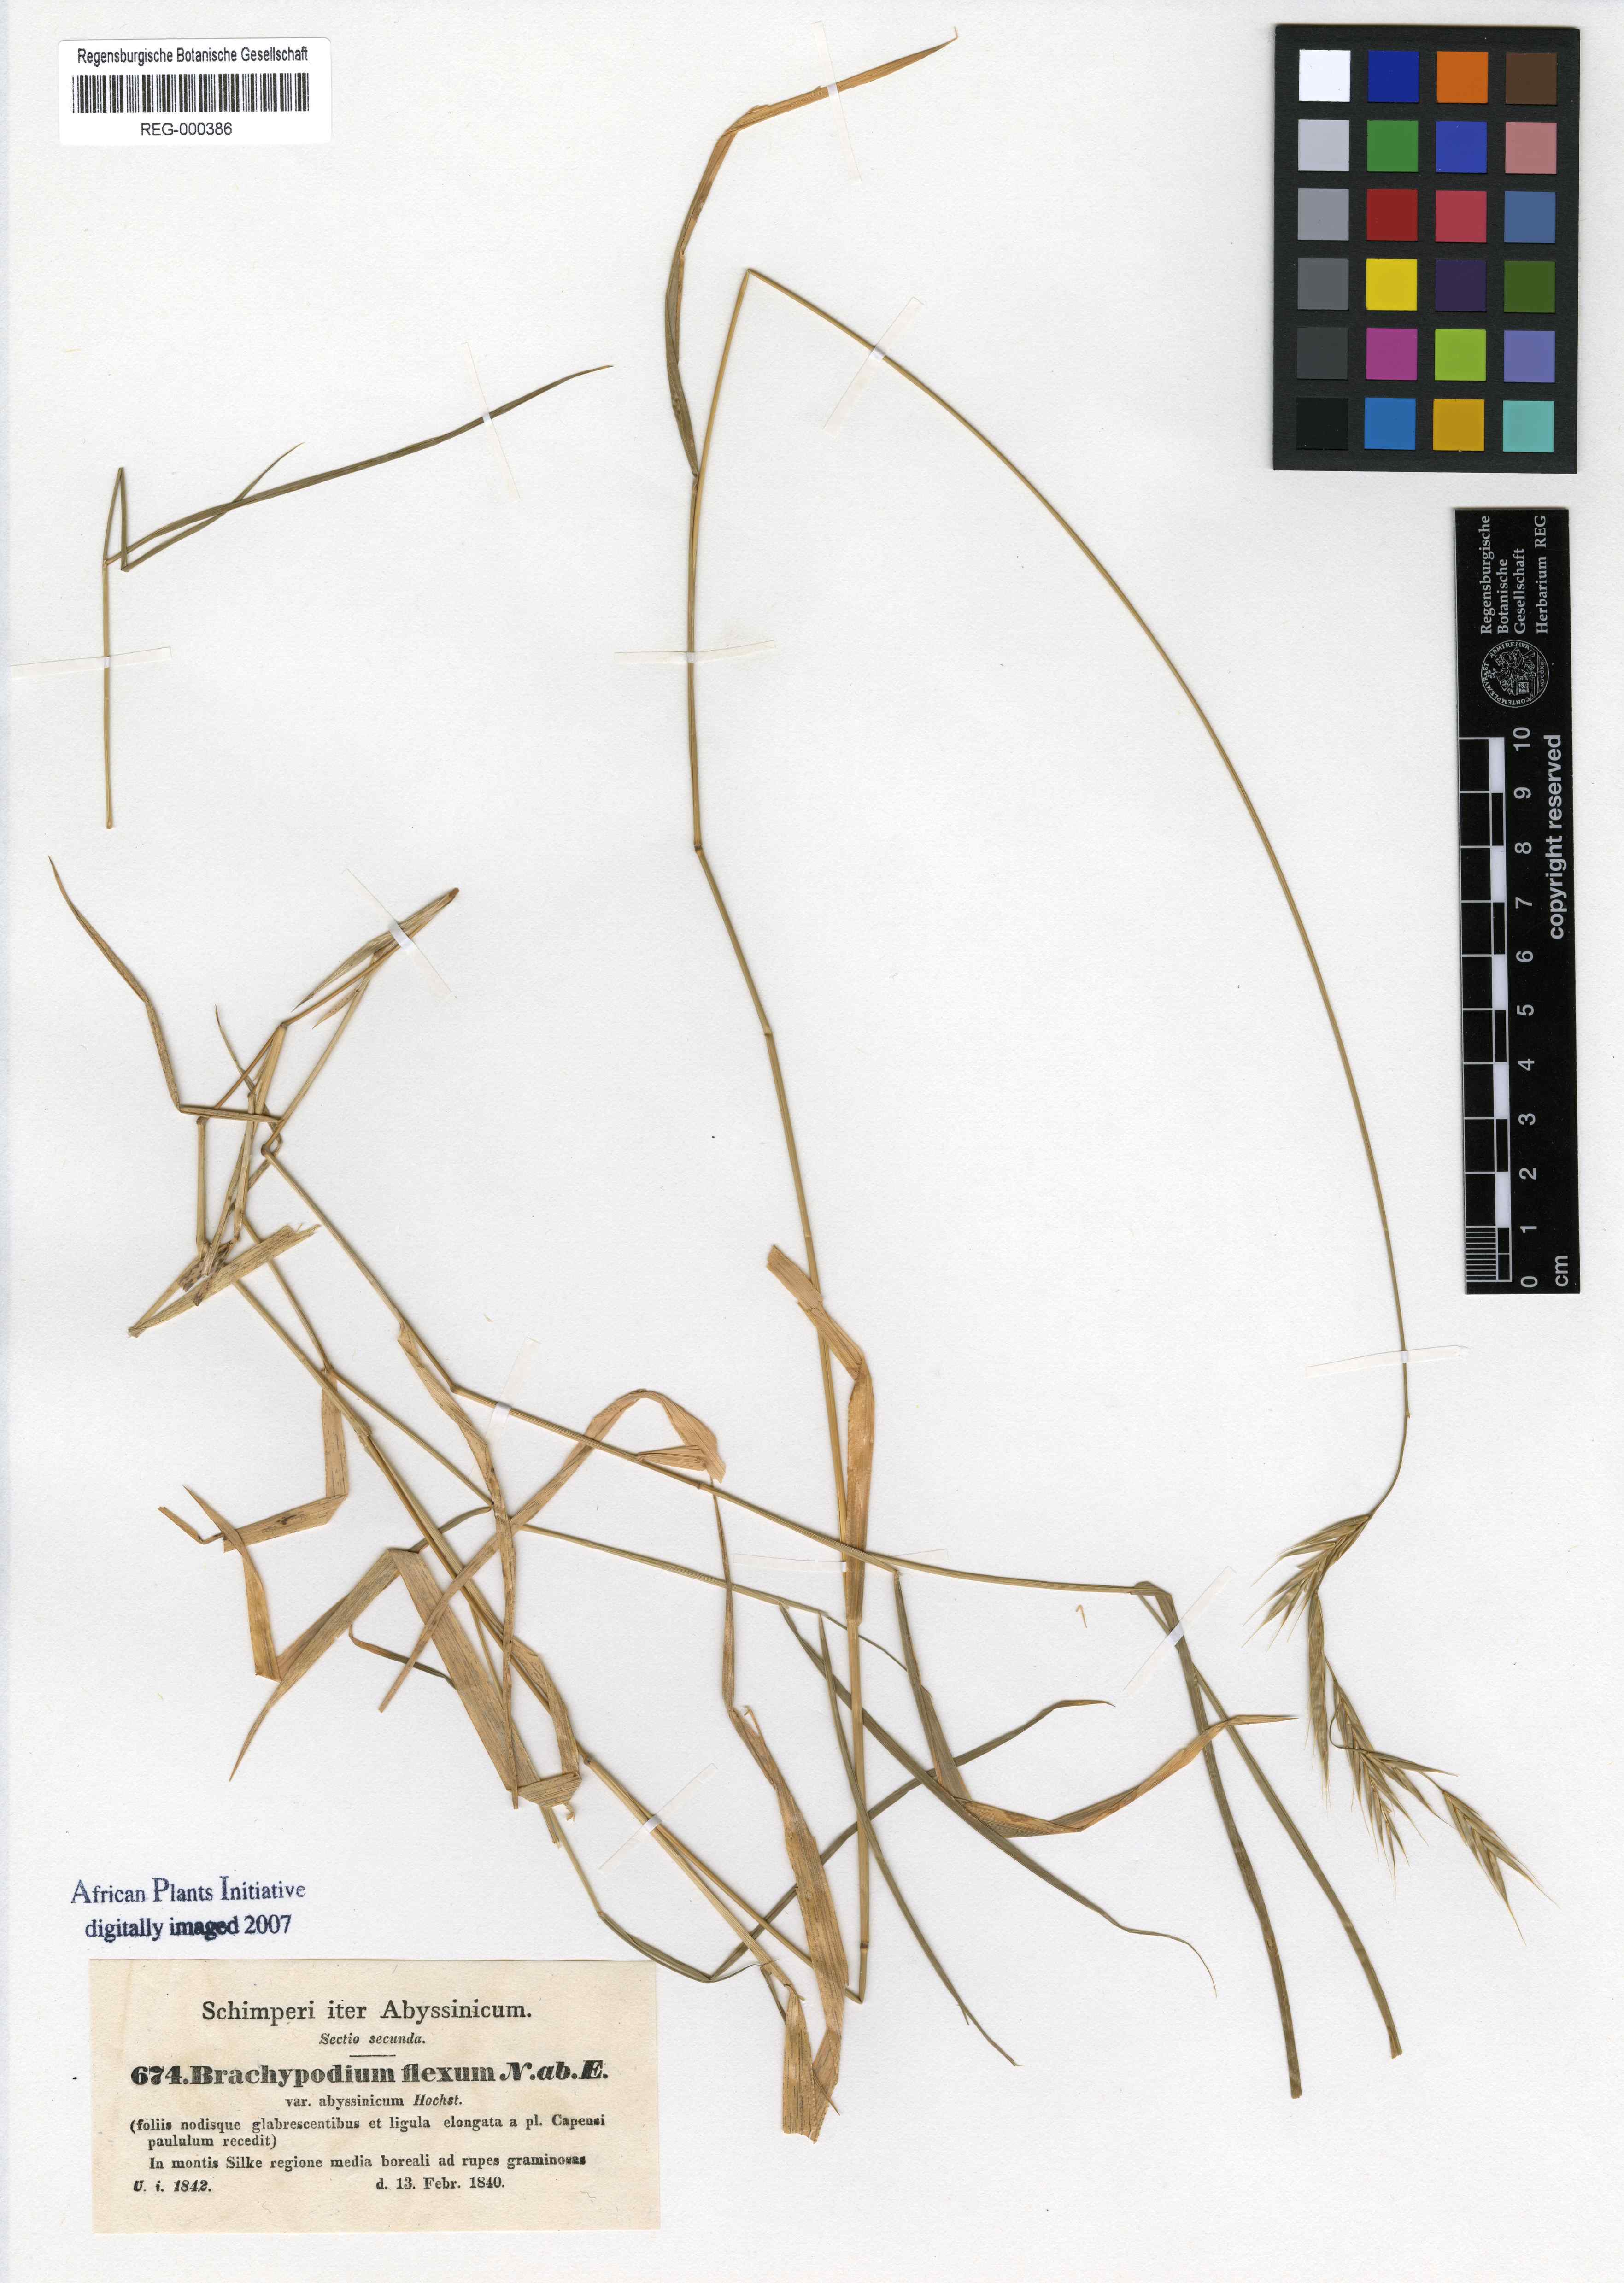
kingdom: Plantae
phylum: Tracheophyta
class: Liliopsida
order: Poales
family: Poaceae
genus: Brachypodium
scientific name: Brachypodium flexum
